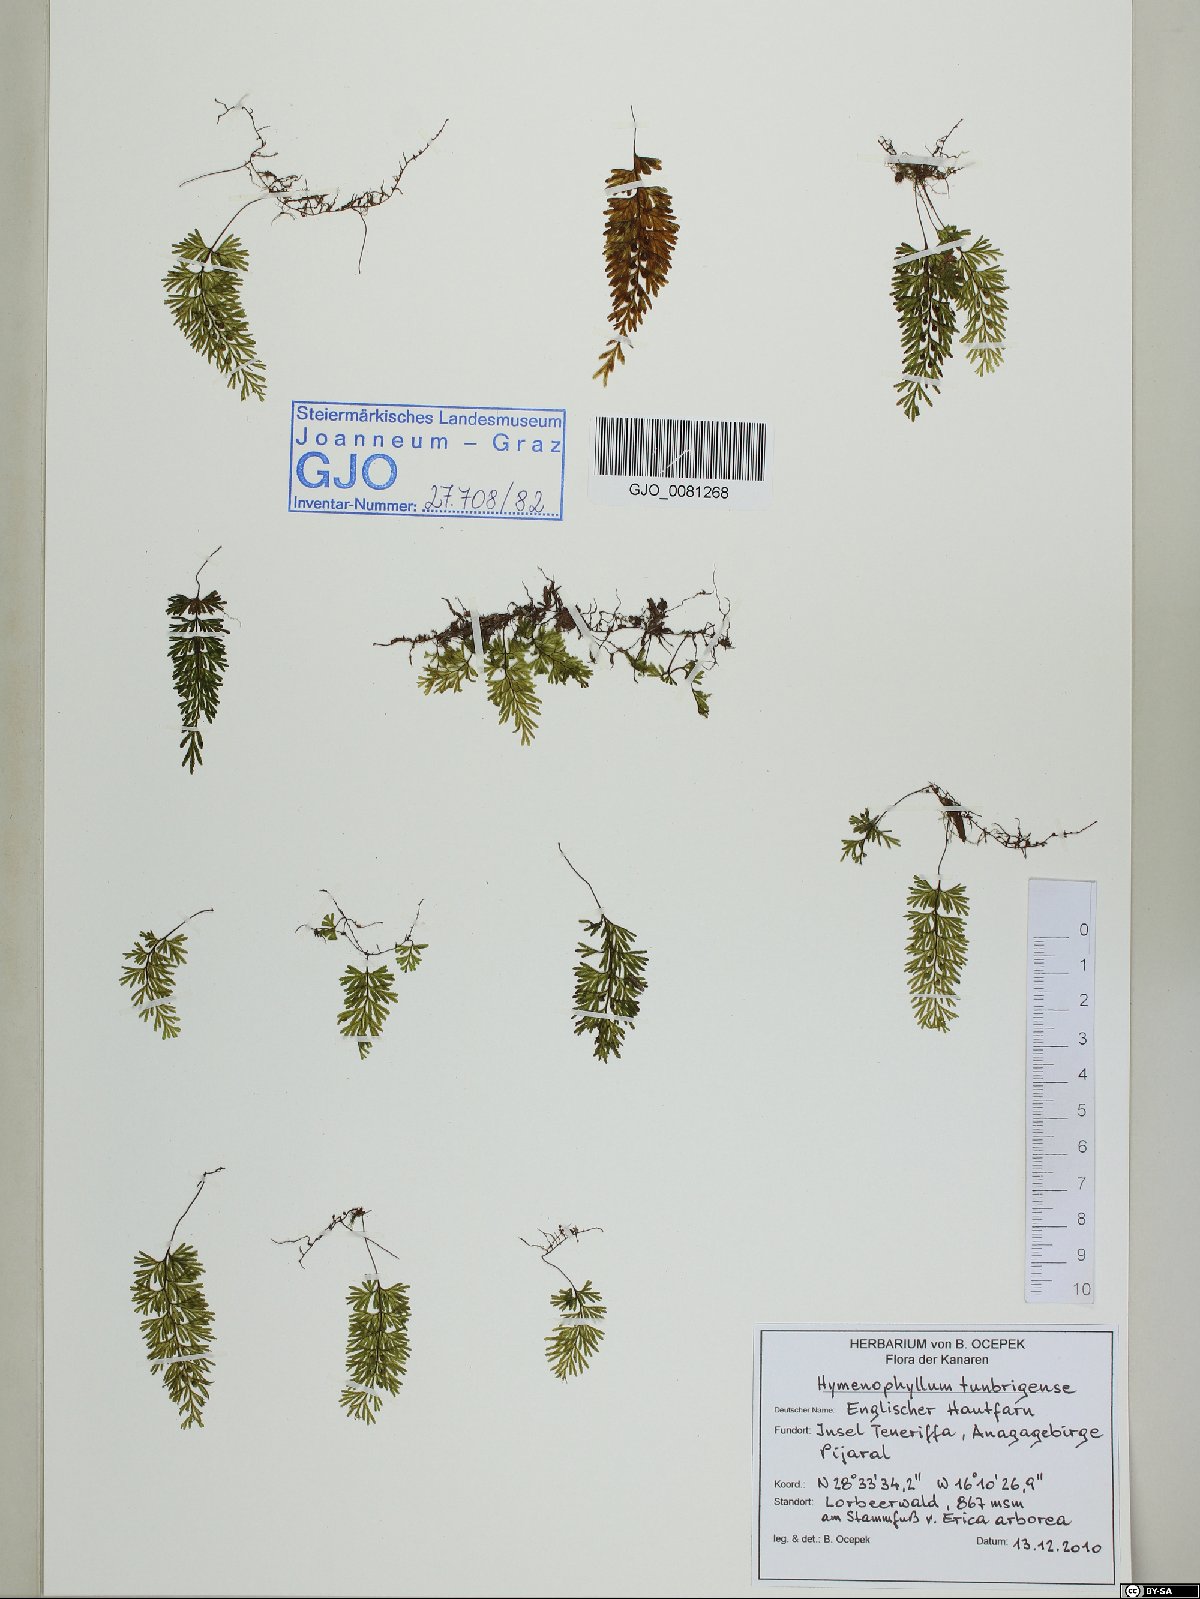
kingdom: Plantae
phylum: Tracheophyta
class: Polypodiopsida
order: Hymenophyllales
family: Hymenophyllaceae
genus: Hymenophyllum
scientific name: Hymenophyllum tunbrigense
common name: Tunbridge filmy fern
